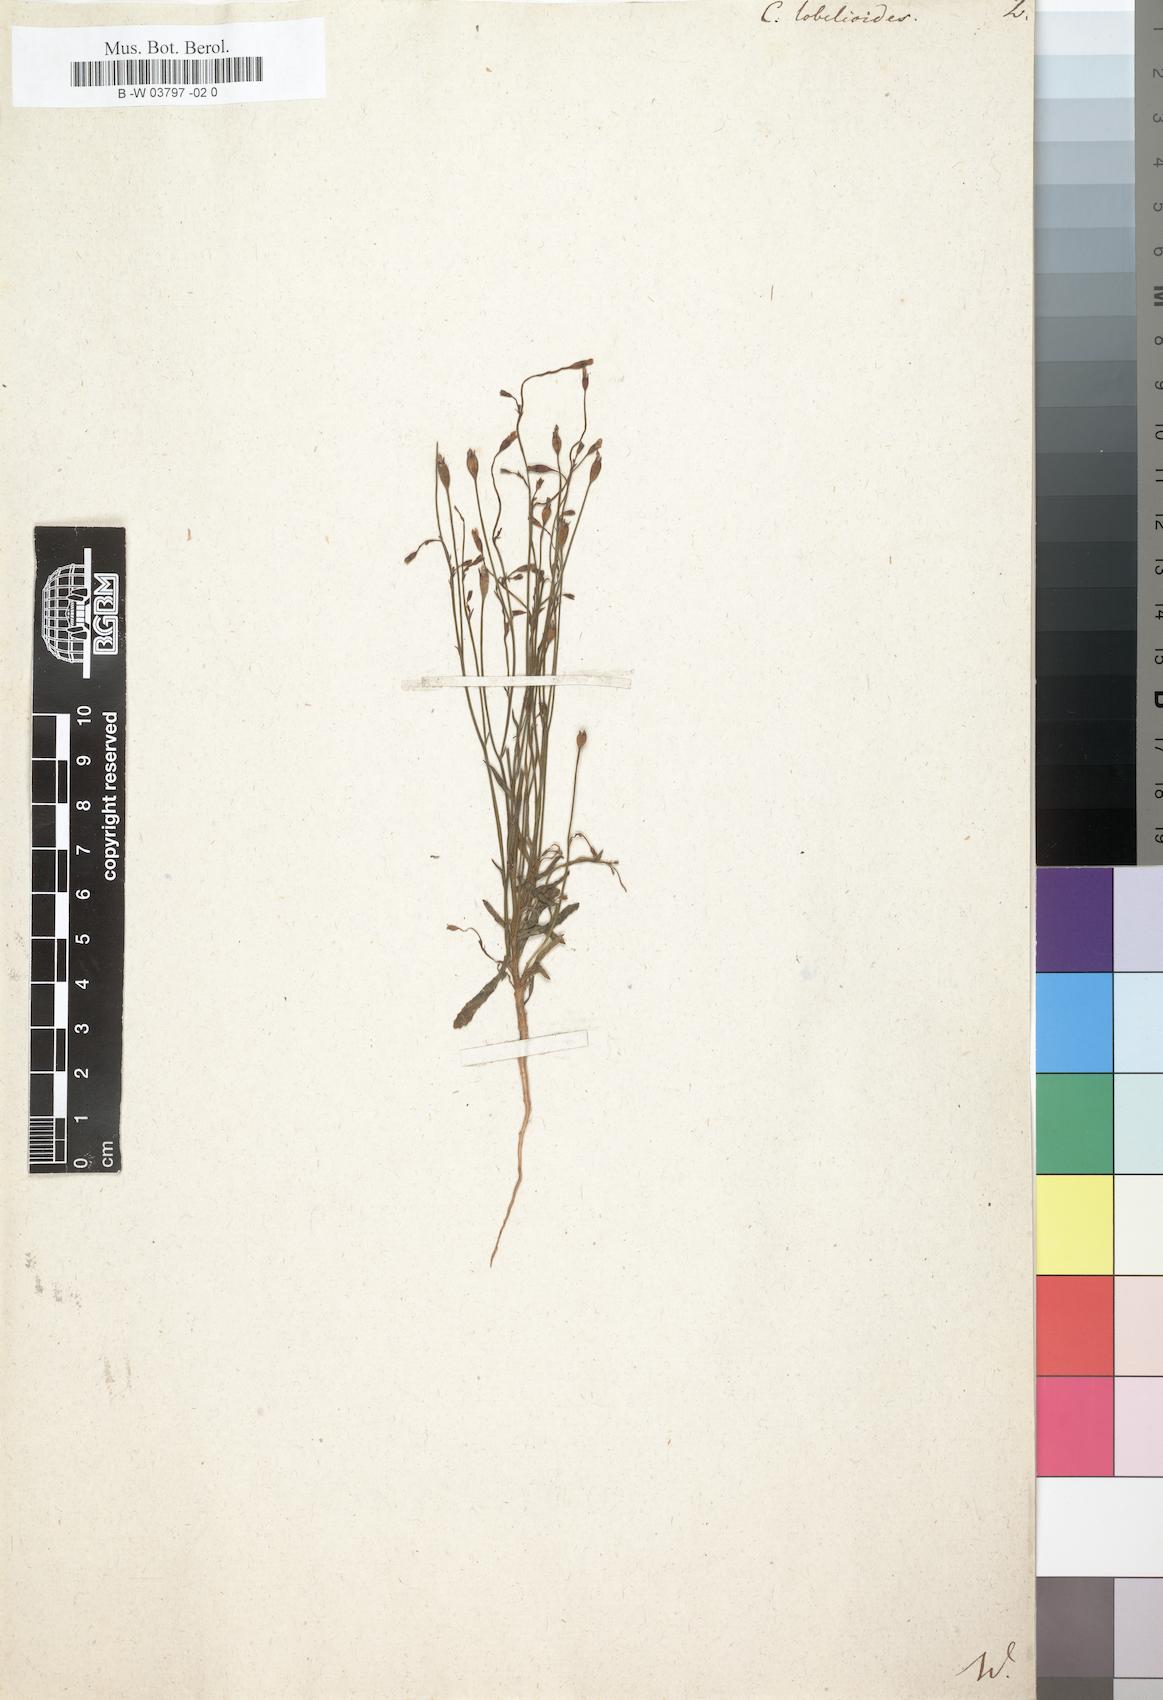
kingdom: Plantae
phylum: Tracheophyta
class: Magnoliopsida
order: Asterales
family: Campanulaceae
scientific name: Campanulaceae
